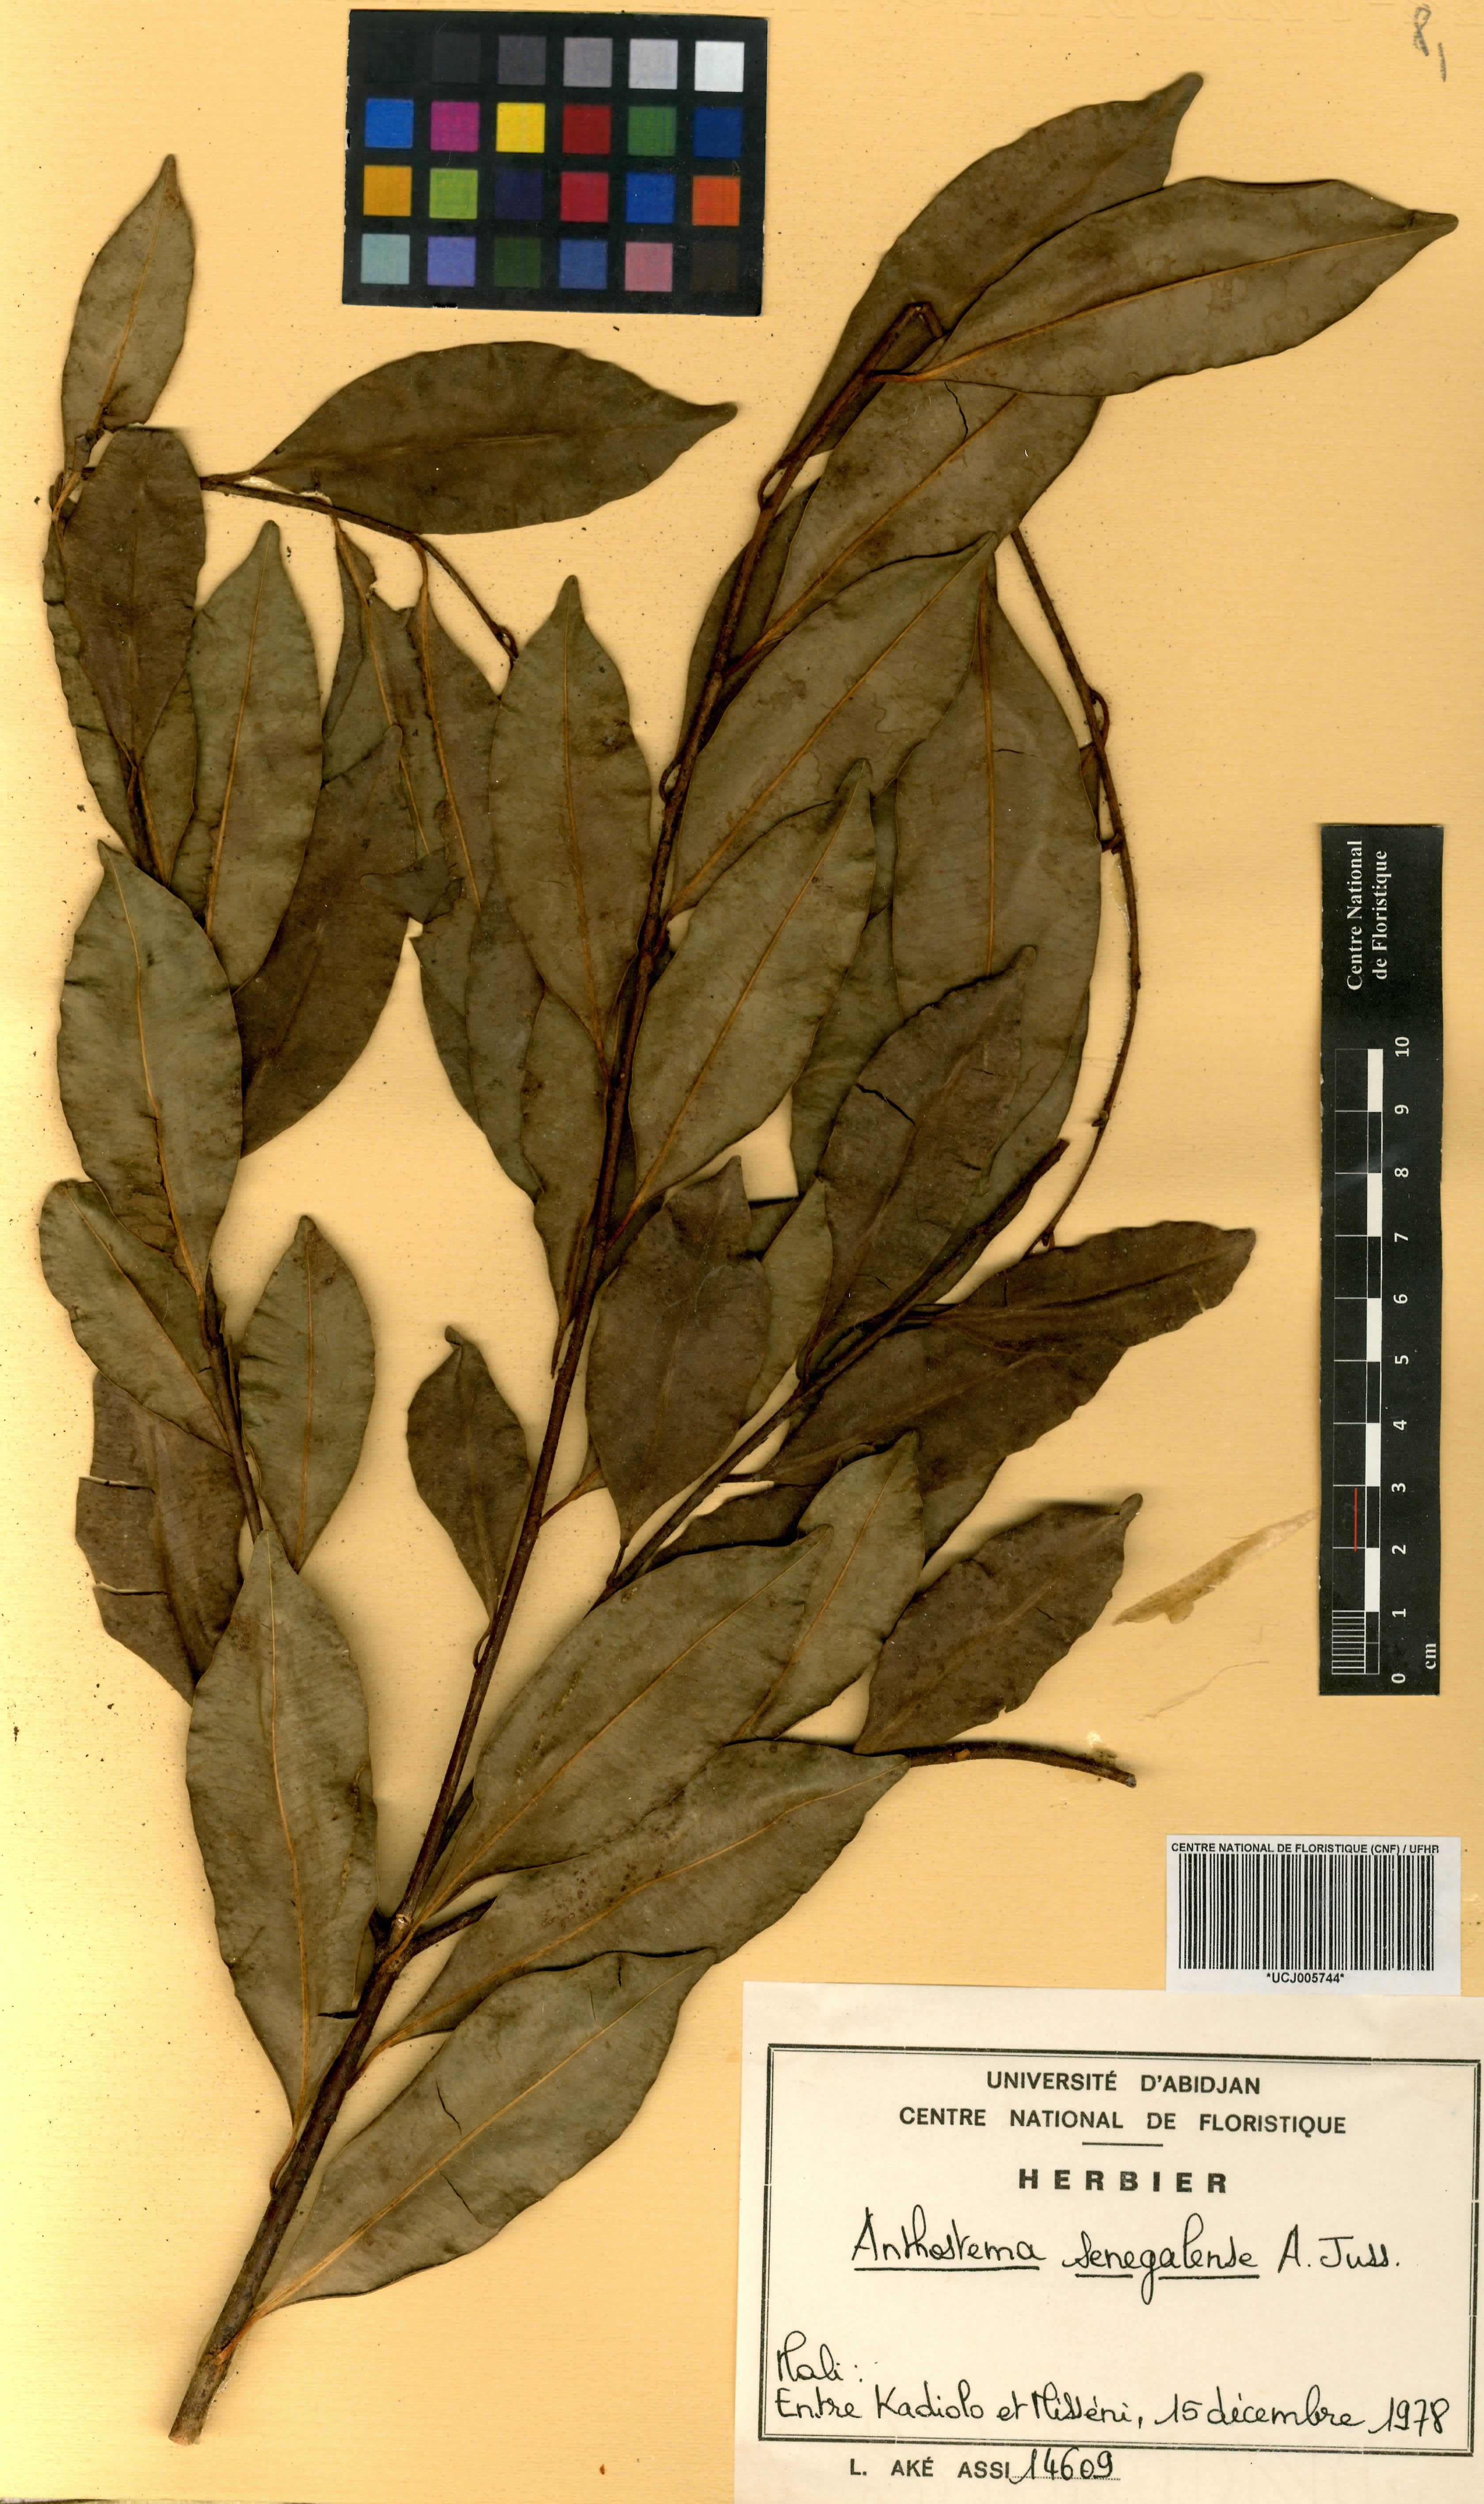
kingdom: Plantae
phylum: Tracheophyta
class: Magnoliopsida
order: Malpighiales
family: Euphorbiaceae
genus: Anthostema
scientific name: Anthostema senegalense
